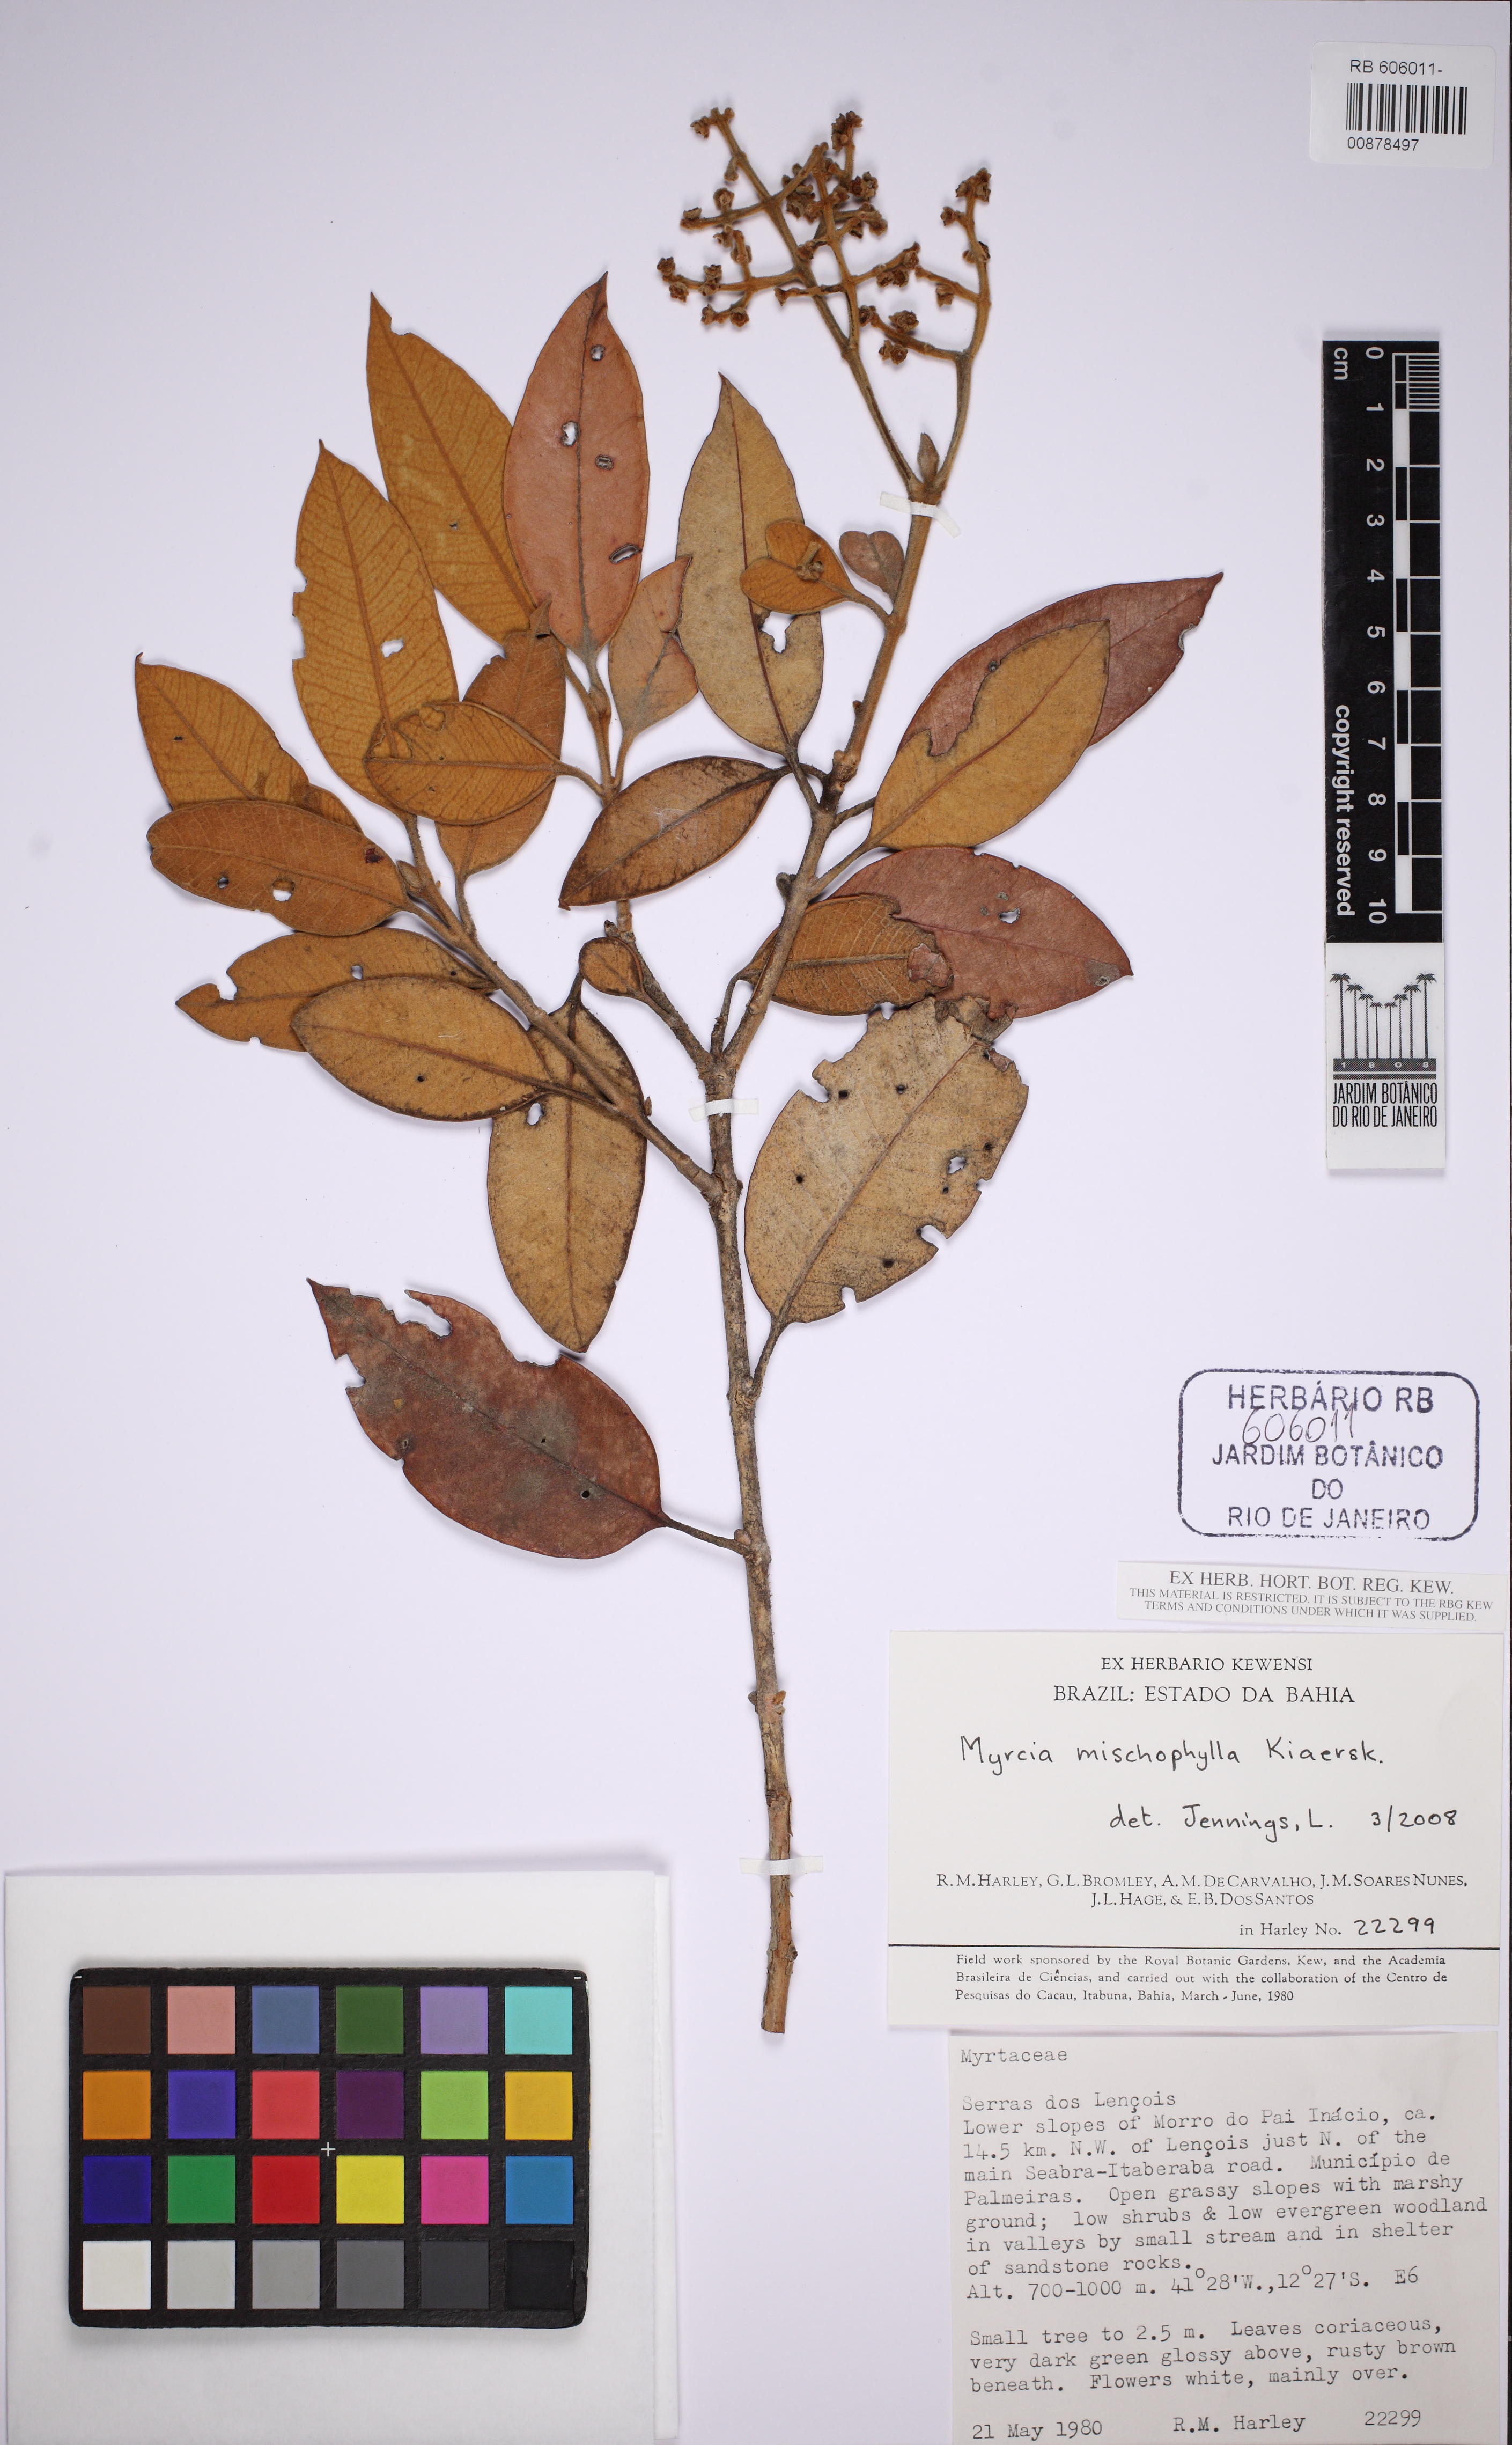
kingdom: Plantae
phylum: Tracheophyta
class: Magnoliopsida
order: Myrtales
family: Myrtaceae
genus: Myrcia
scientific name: Myrcia mischophylla
